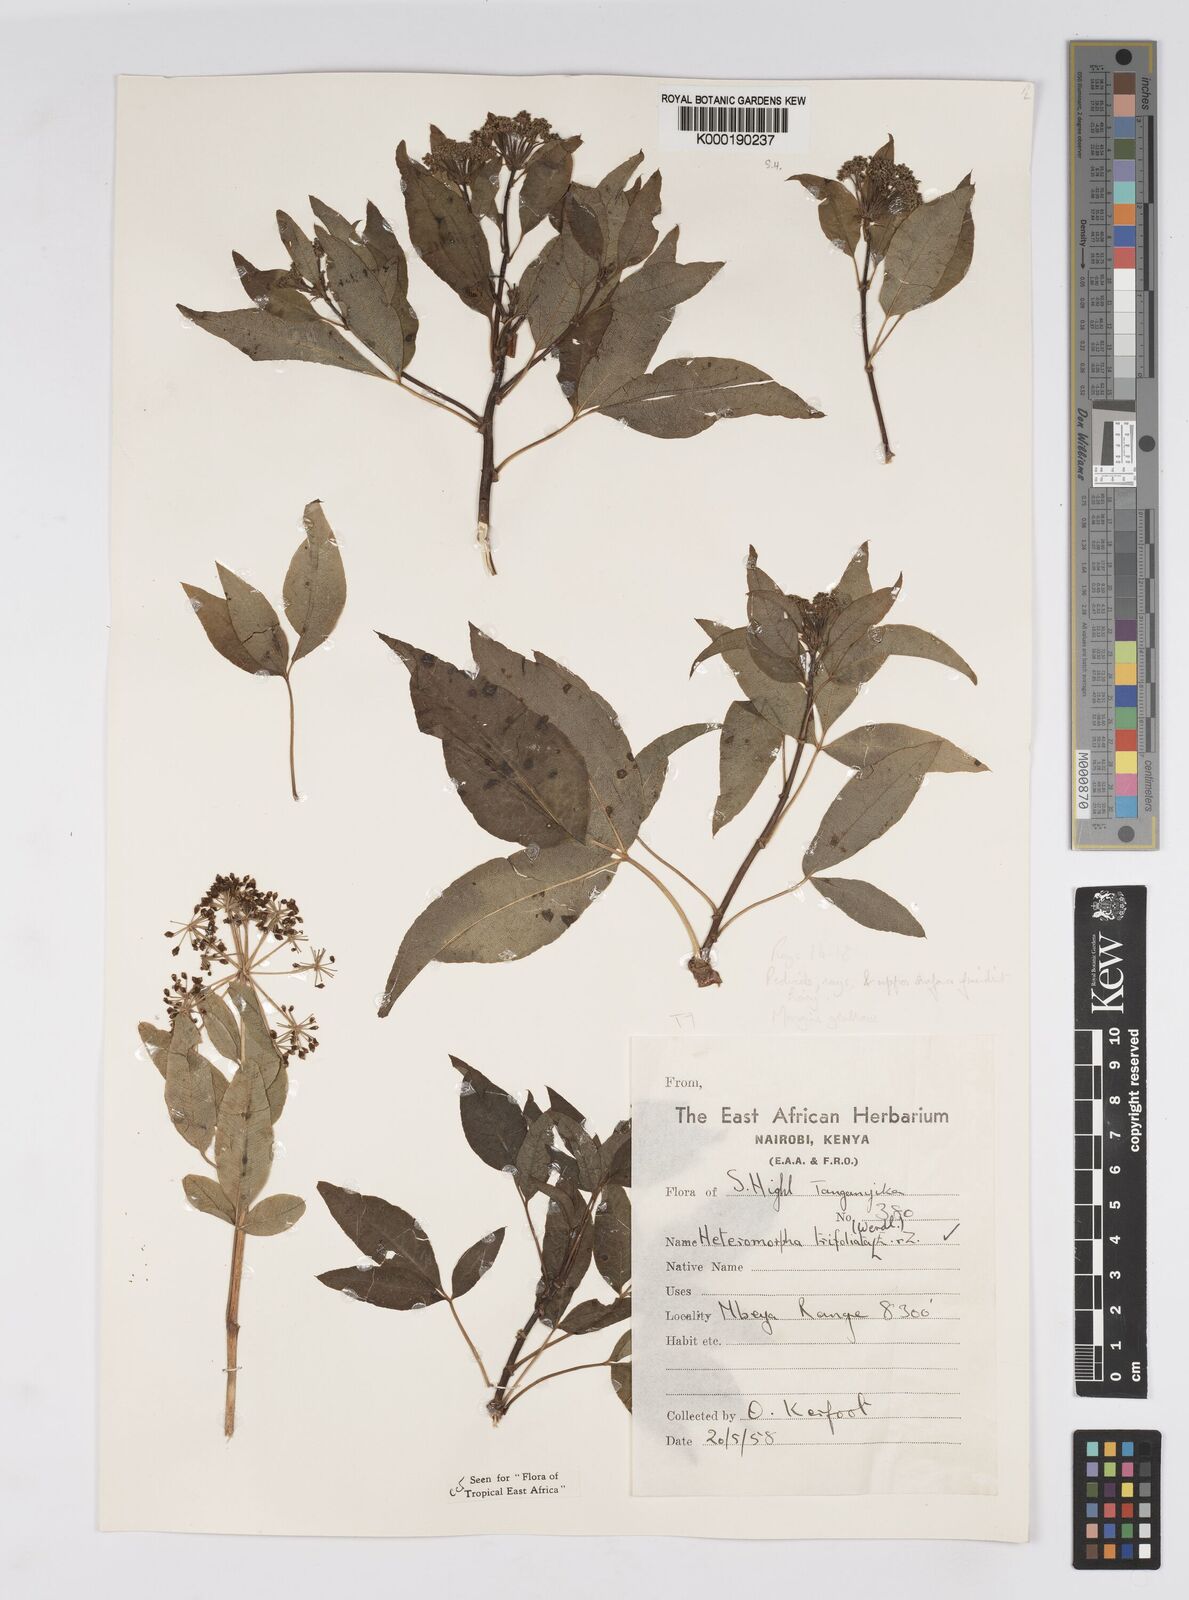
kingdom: Plantae
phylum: Tracheophyta
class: Magnoliopsida
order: Apiales
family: Apiaceae
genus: Heteromorpha
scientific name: Heteromorpha arborescens
